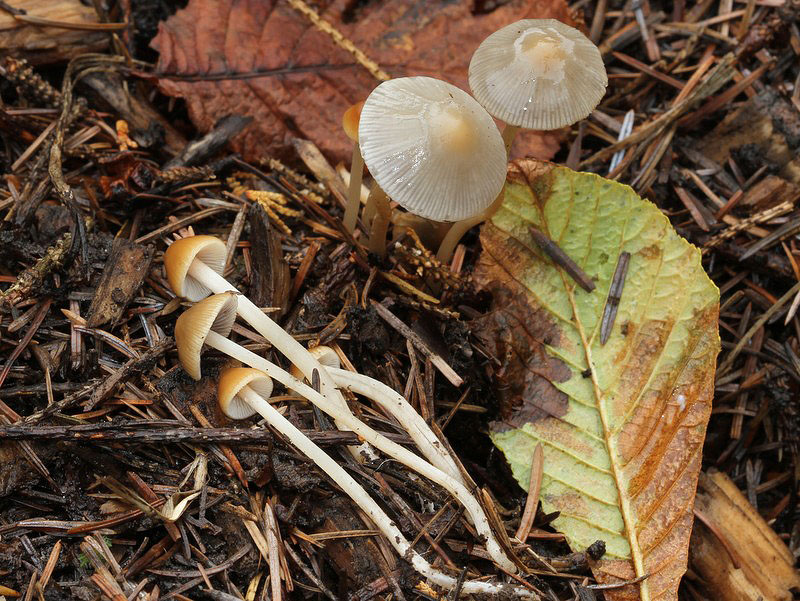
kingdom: Fungi
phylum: Basidiomycota
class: Agaricomycetes
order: Agaricales
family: Psathyrellaceae
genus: Psathyrella
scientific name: Psathyrella corrugis
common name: rødægget mørkhat
